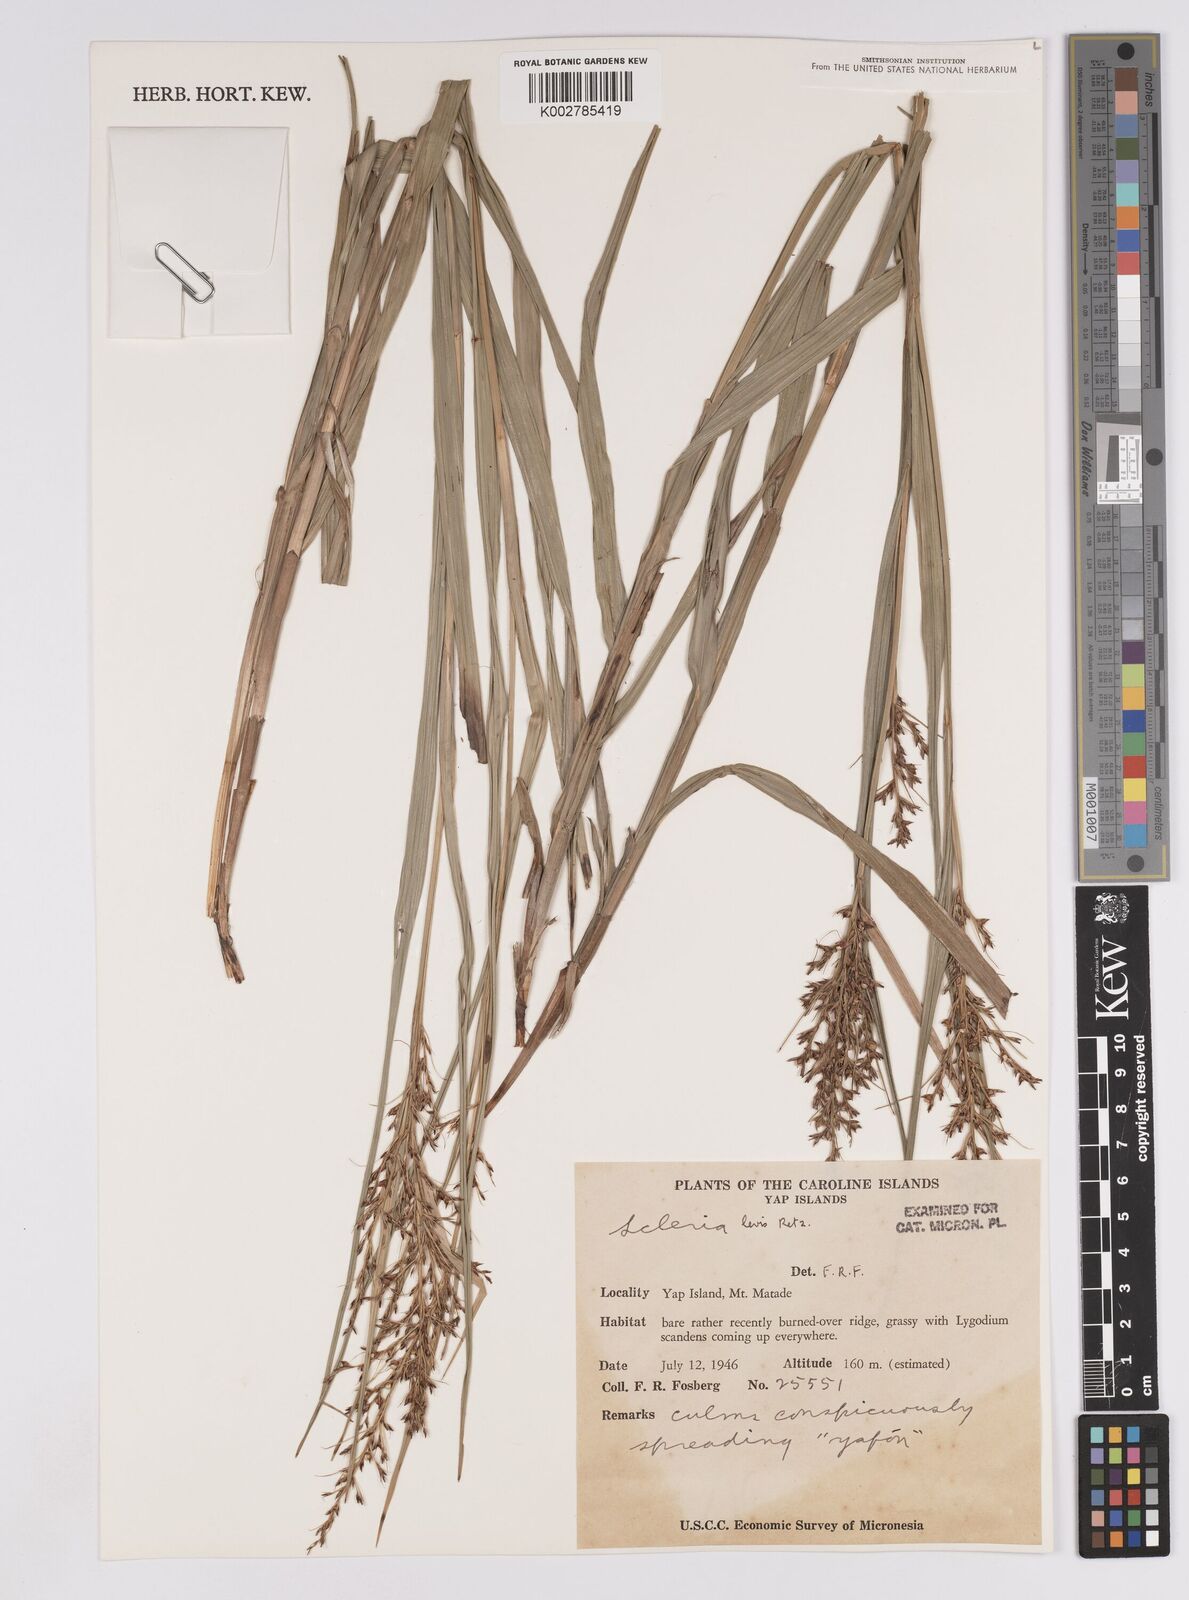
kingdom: Plantae
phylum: Tracheophyta
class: Liliopsida
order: Poales
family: Cyperaceae
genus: Scleria
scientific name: Scleria levis
